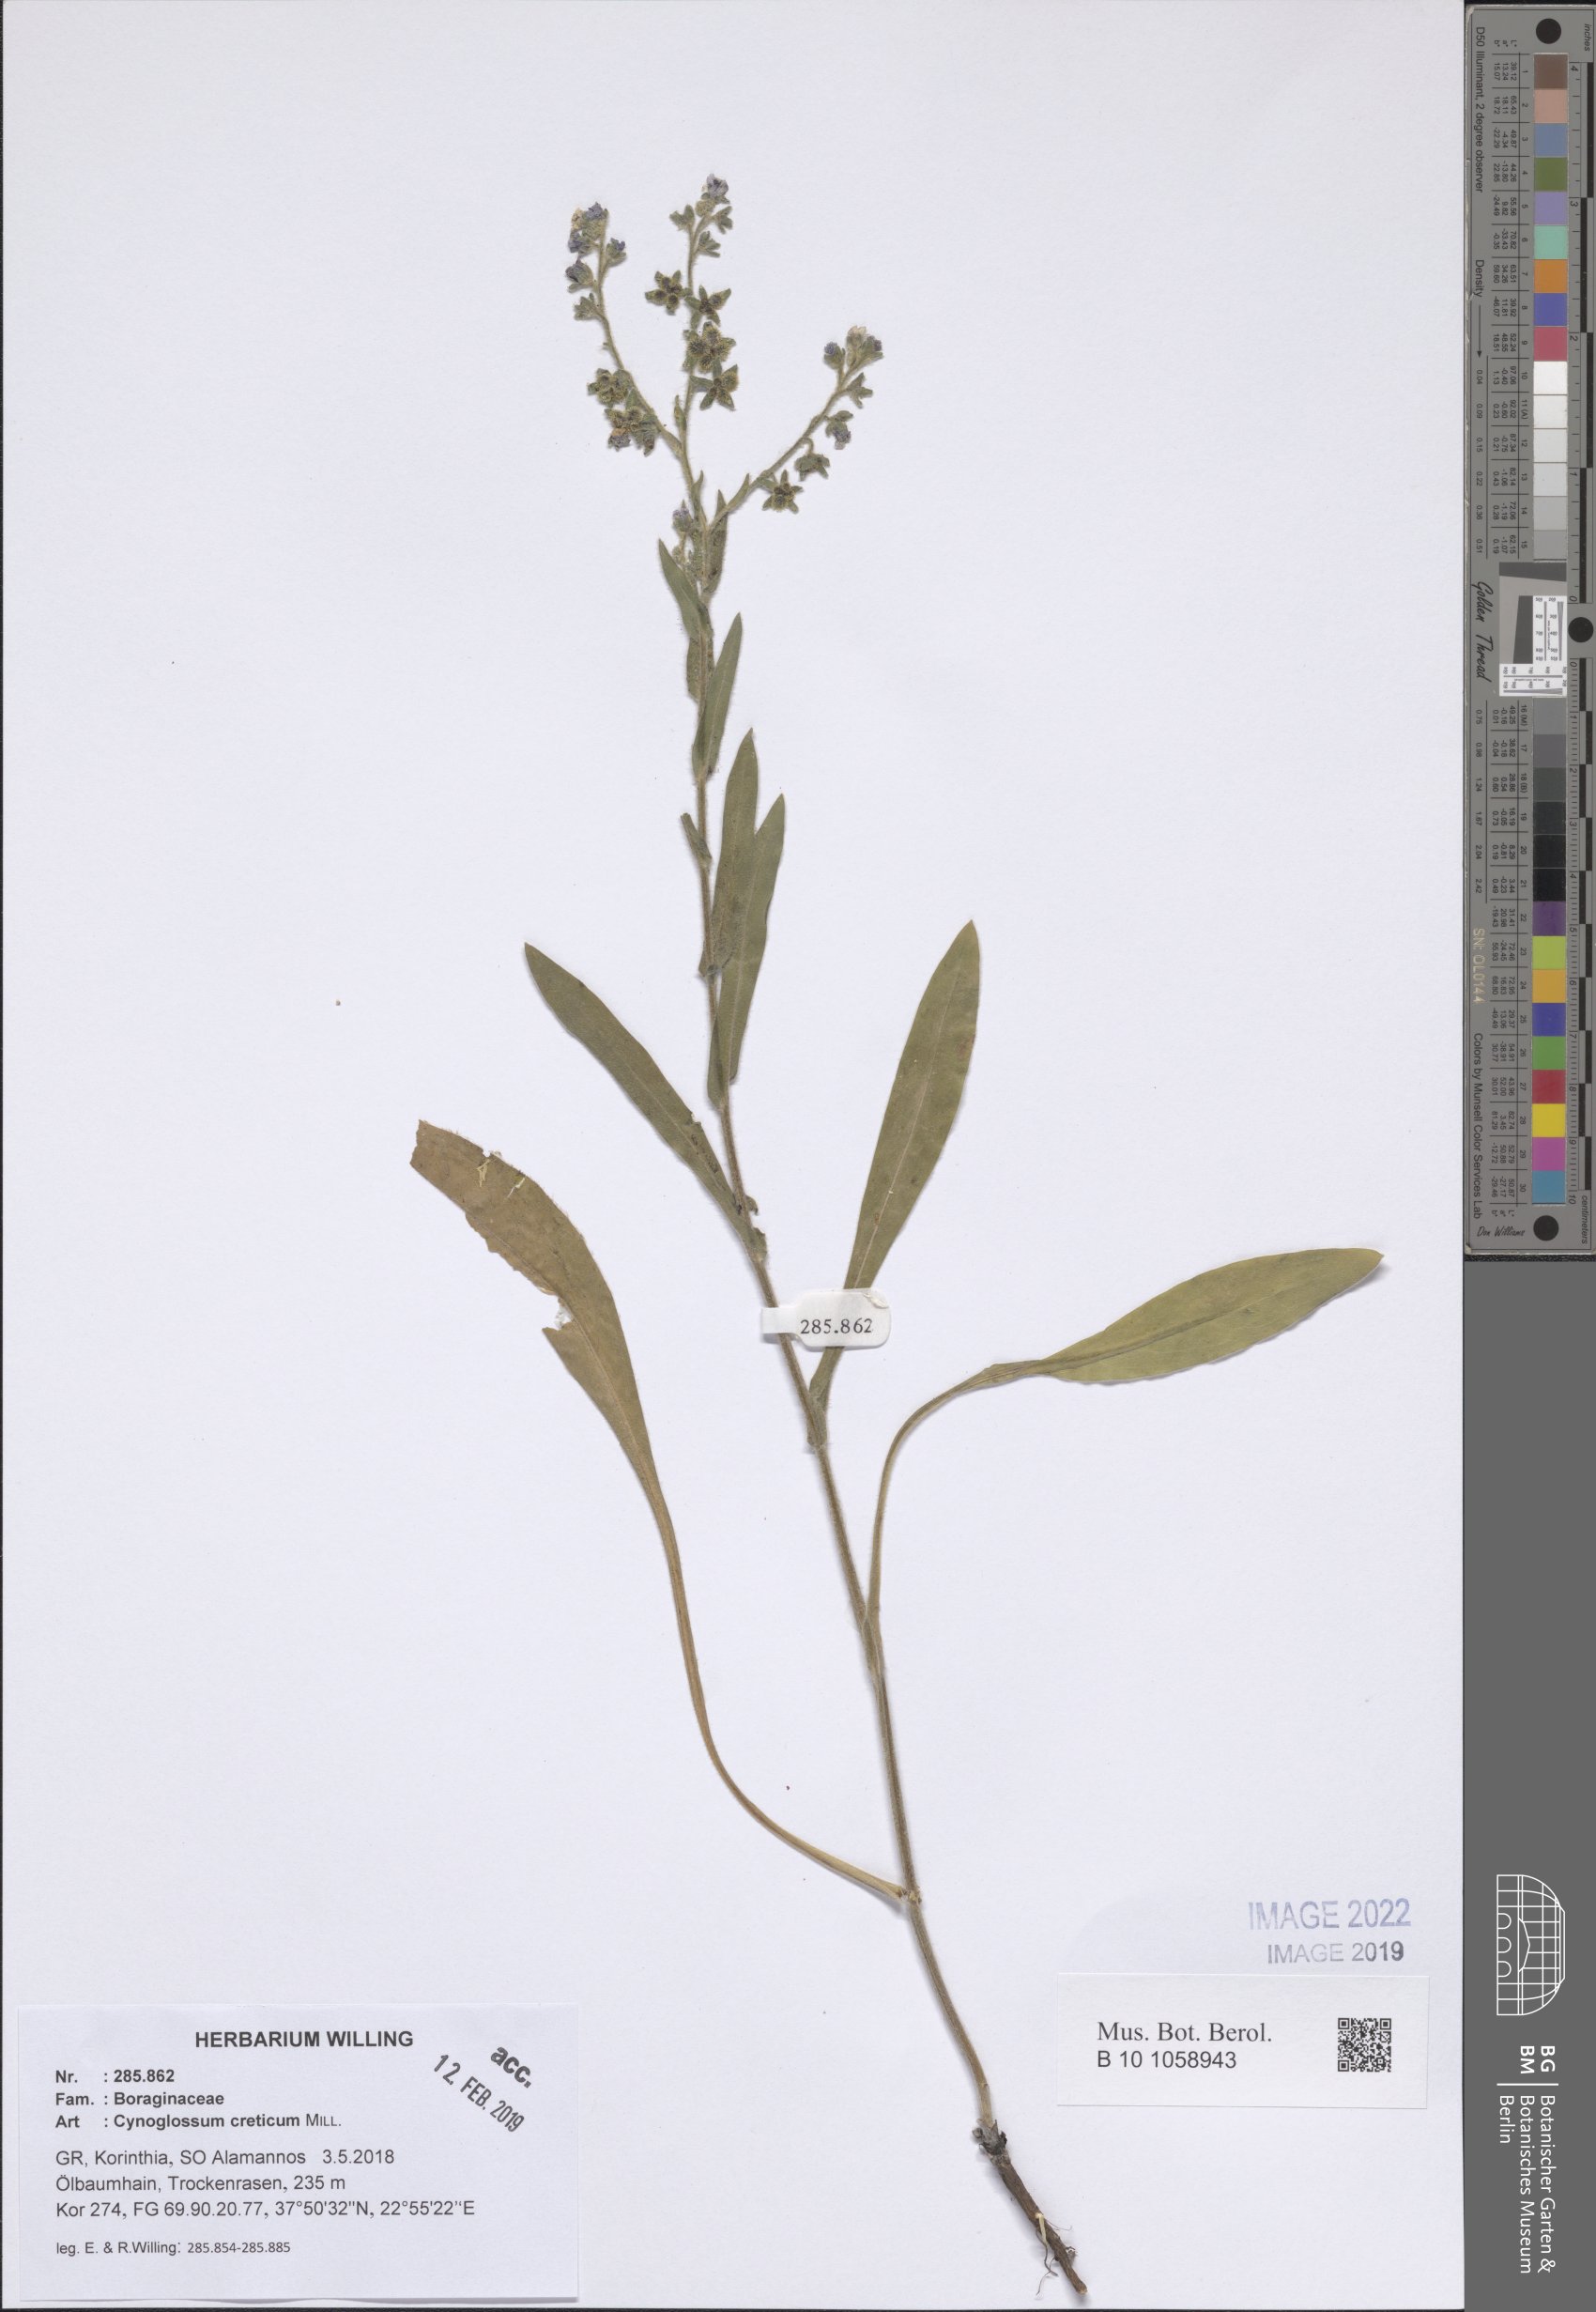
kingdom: Plantae
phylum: Tracheophyta
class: Magnoliopsida
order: Boraginales
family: Boraginaceae
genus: Cynoglossum
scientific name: Cynoglossum creticum
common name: Blue hound's tongue
